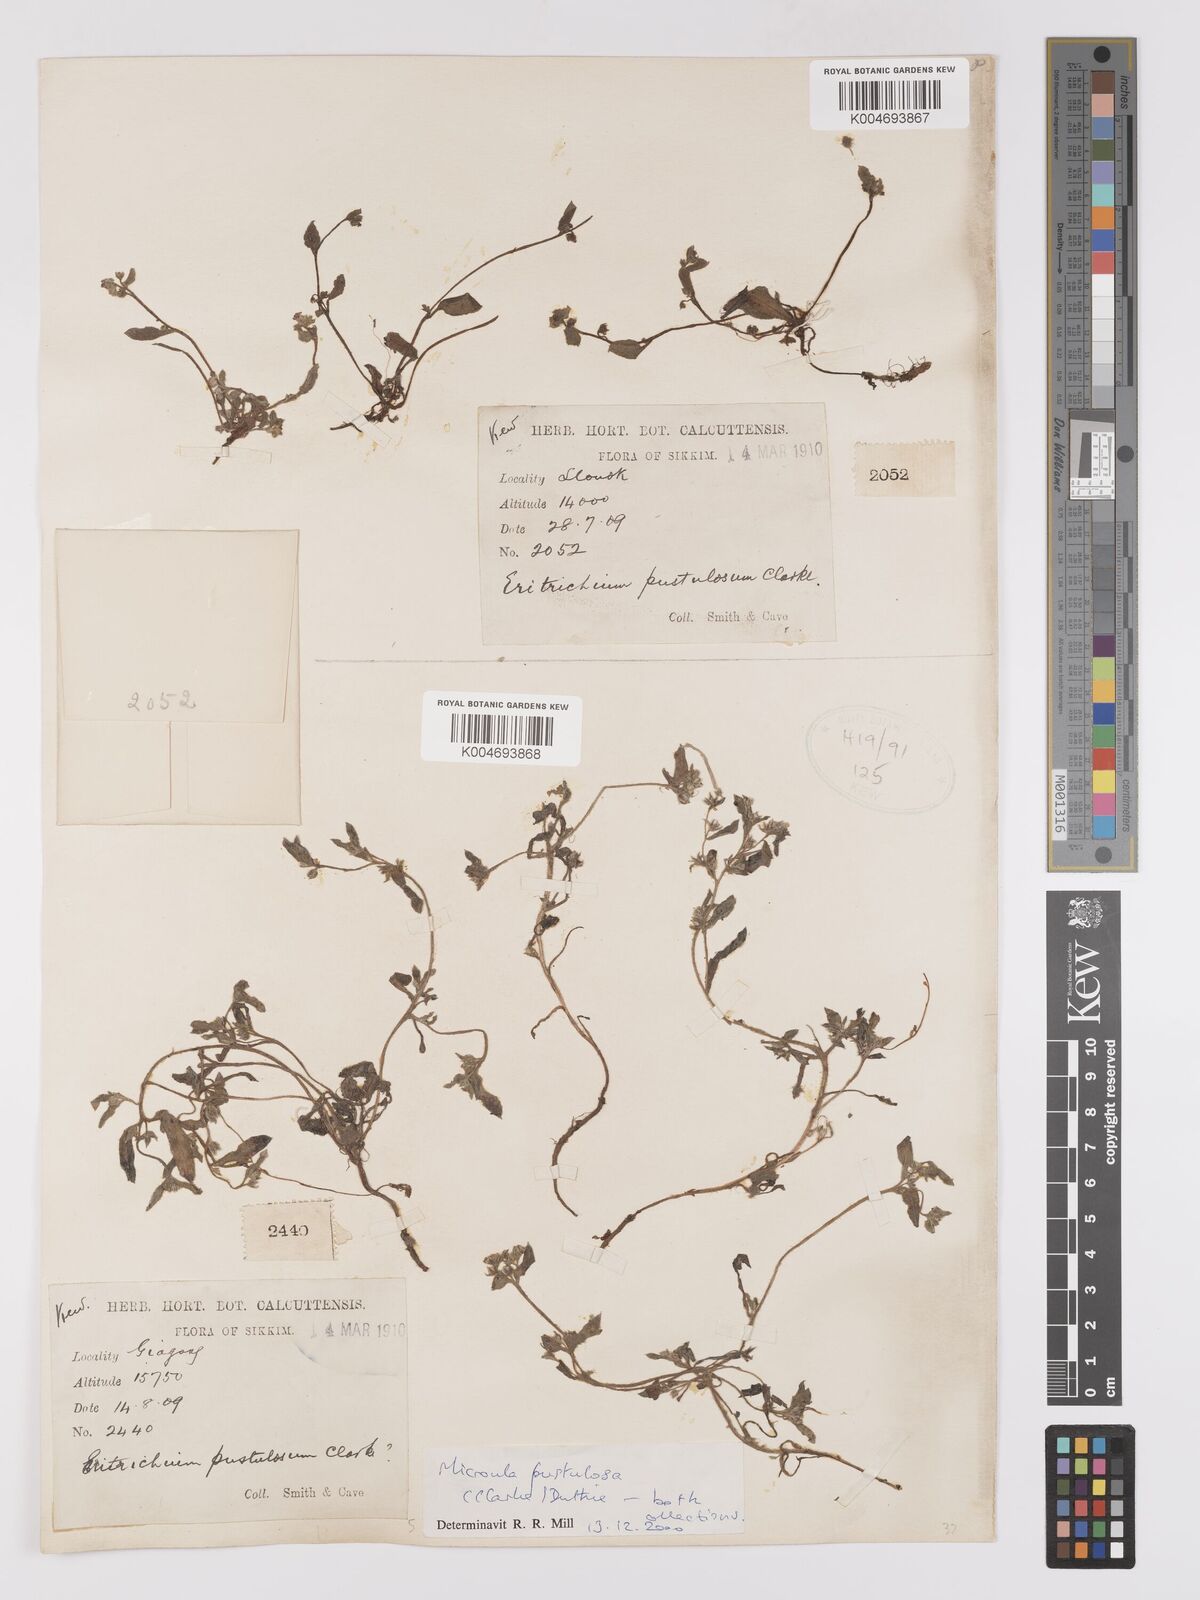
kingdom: Plantae
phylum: Tracheophyta
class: Magnoliopsida
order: Boraginales
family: Boraginaceae
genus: Microula
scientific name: Microula pustulosa
